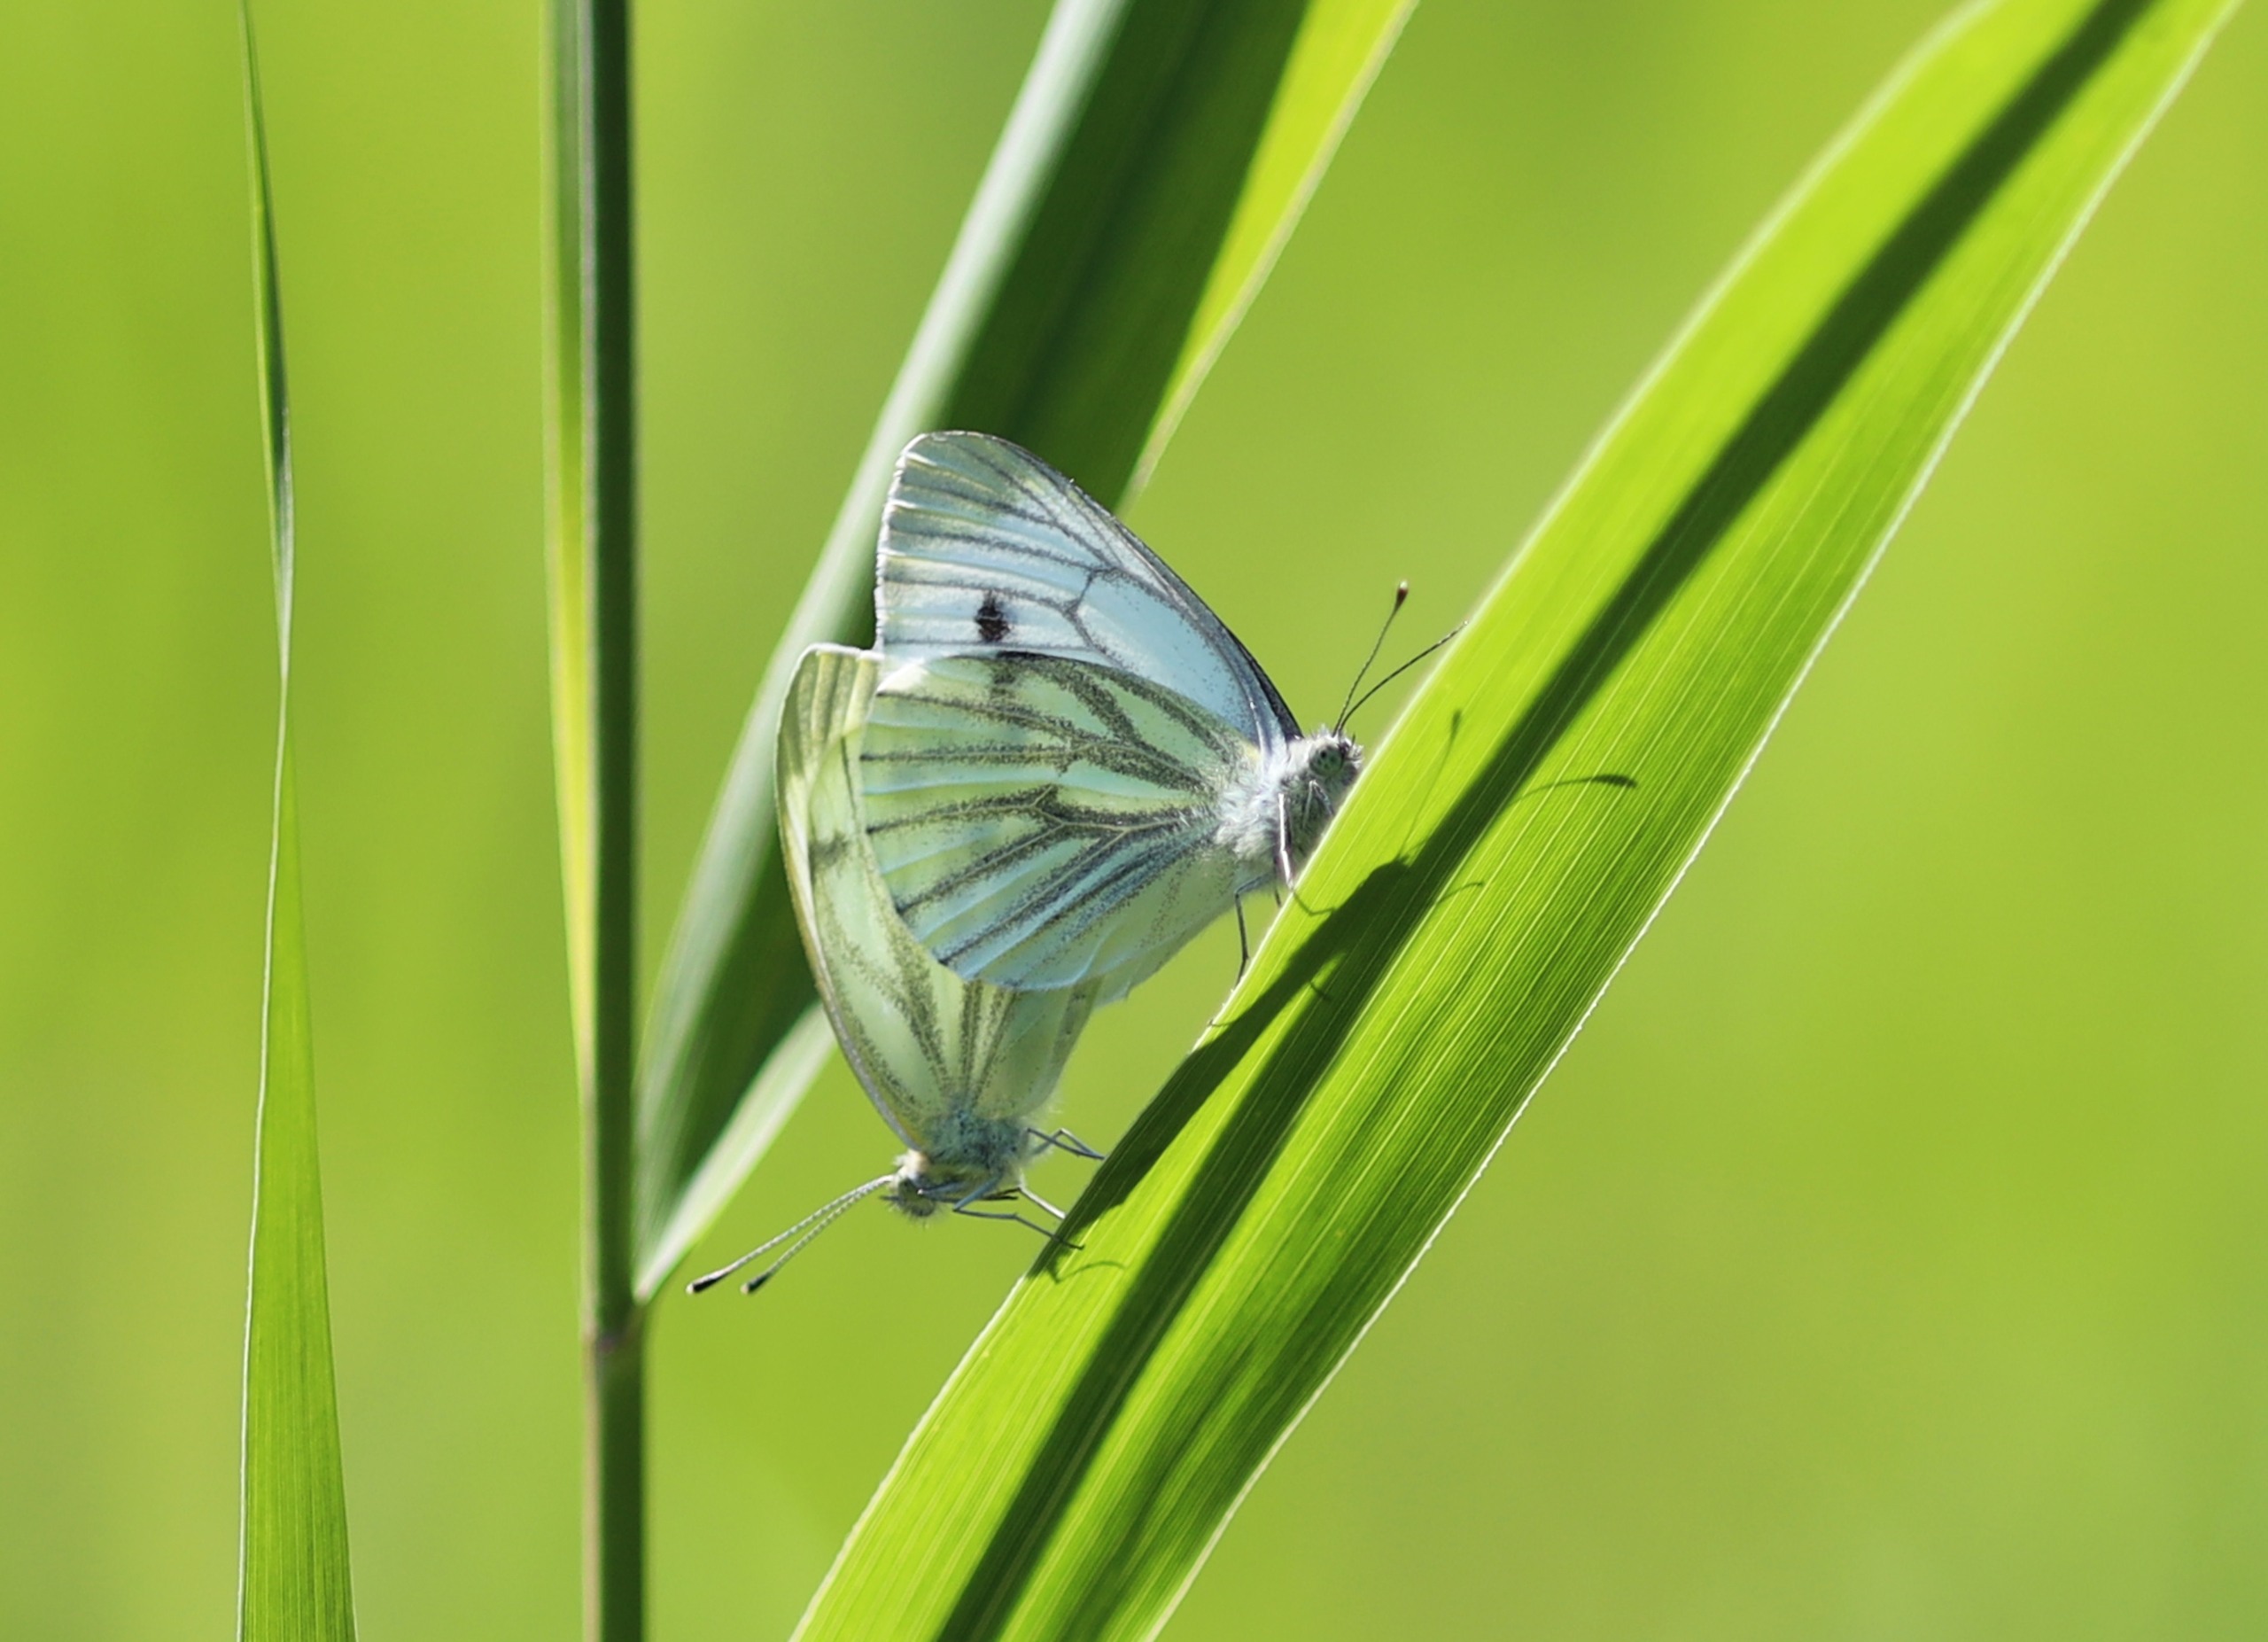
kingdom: Animalia
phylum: Arthropoda
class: Insecta
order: Lepidoptera
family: Pieridae
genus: Pieris
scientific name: Pieris napi
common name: Grønåret kålsommerfugl
